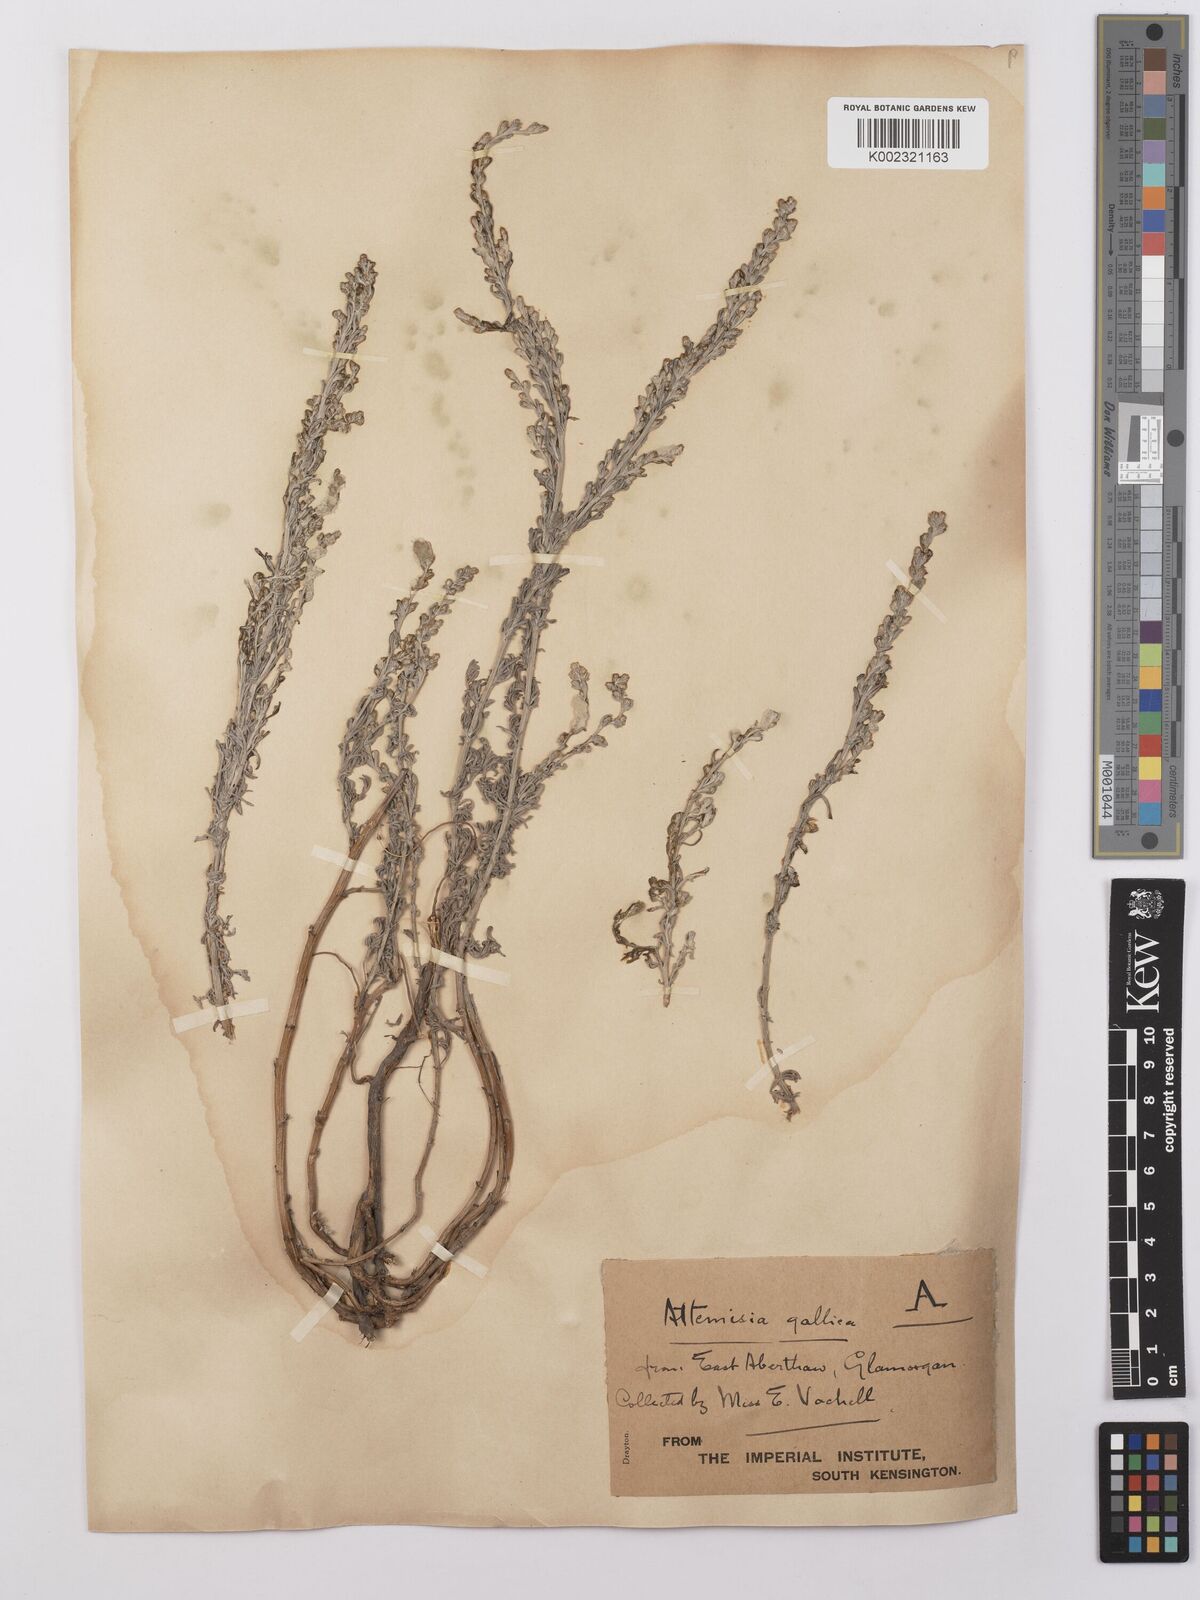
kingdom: Plantae
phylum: Tracheophyta
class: Magnoliopsida
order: Asterales
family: Asteraceae
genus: Artemisia
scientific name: Artemisia maritima
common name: Wormseed
